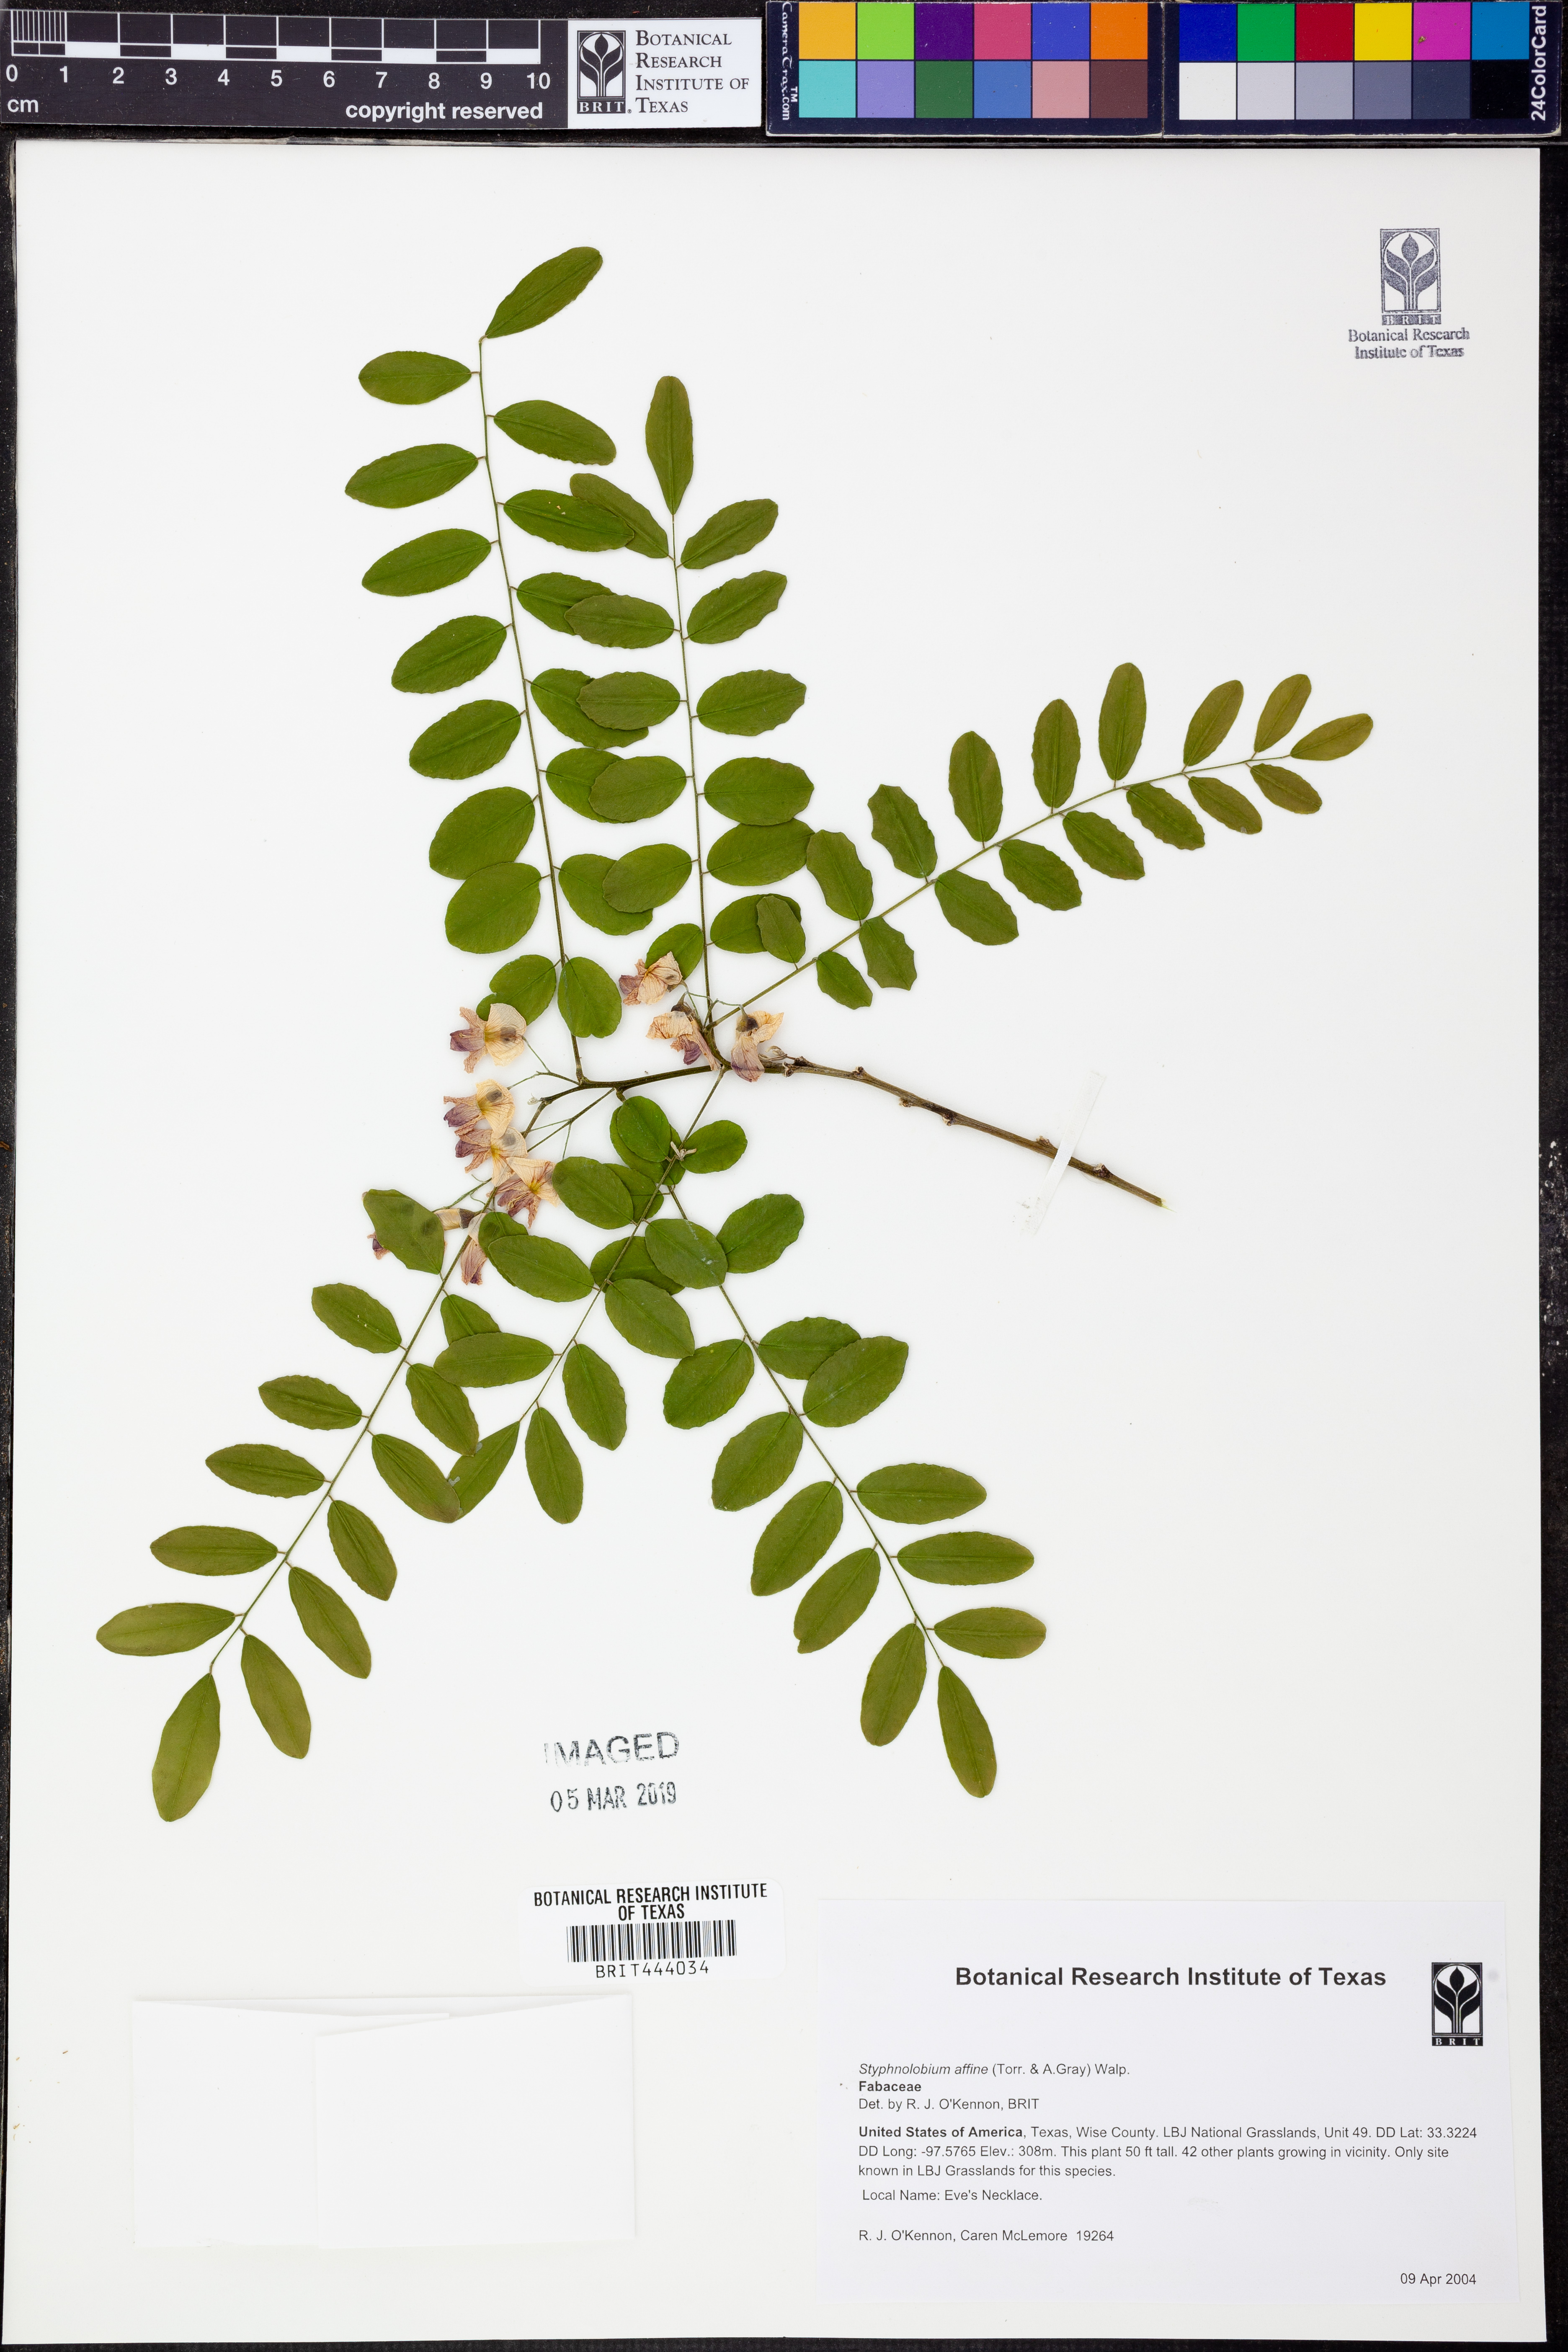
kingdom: Plantae
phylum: Tracheophyta
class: Magnoliopsida
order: Fabales
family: Fabaceae
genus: Styphnolobium
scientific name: Styphnolobium affine
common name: Texas sophora
